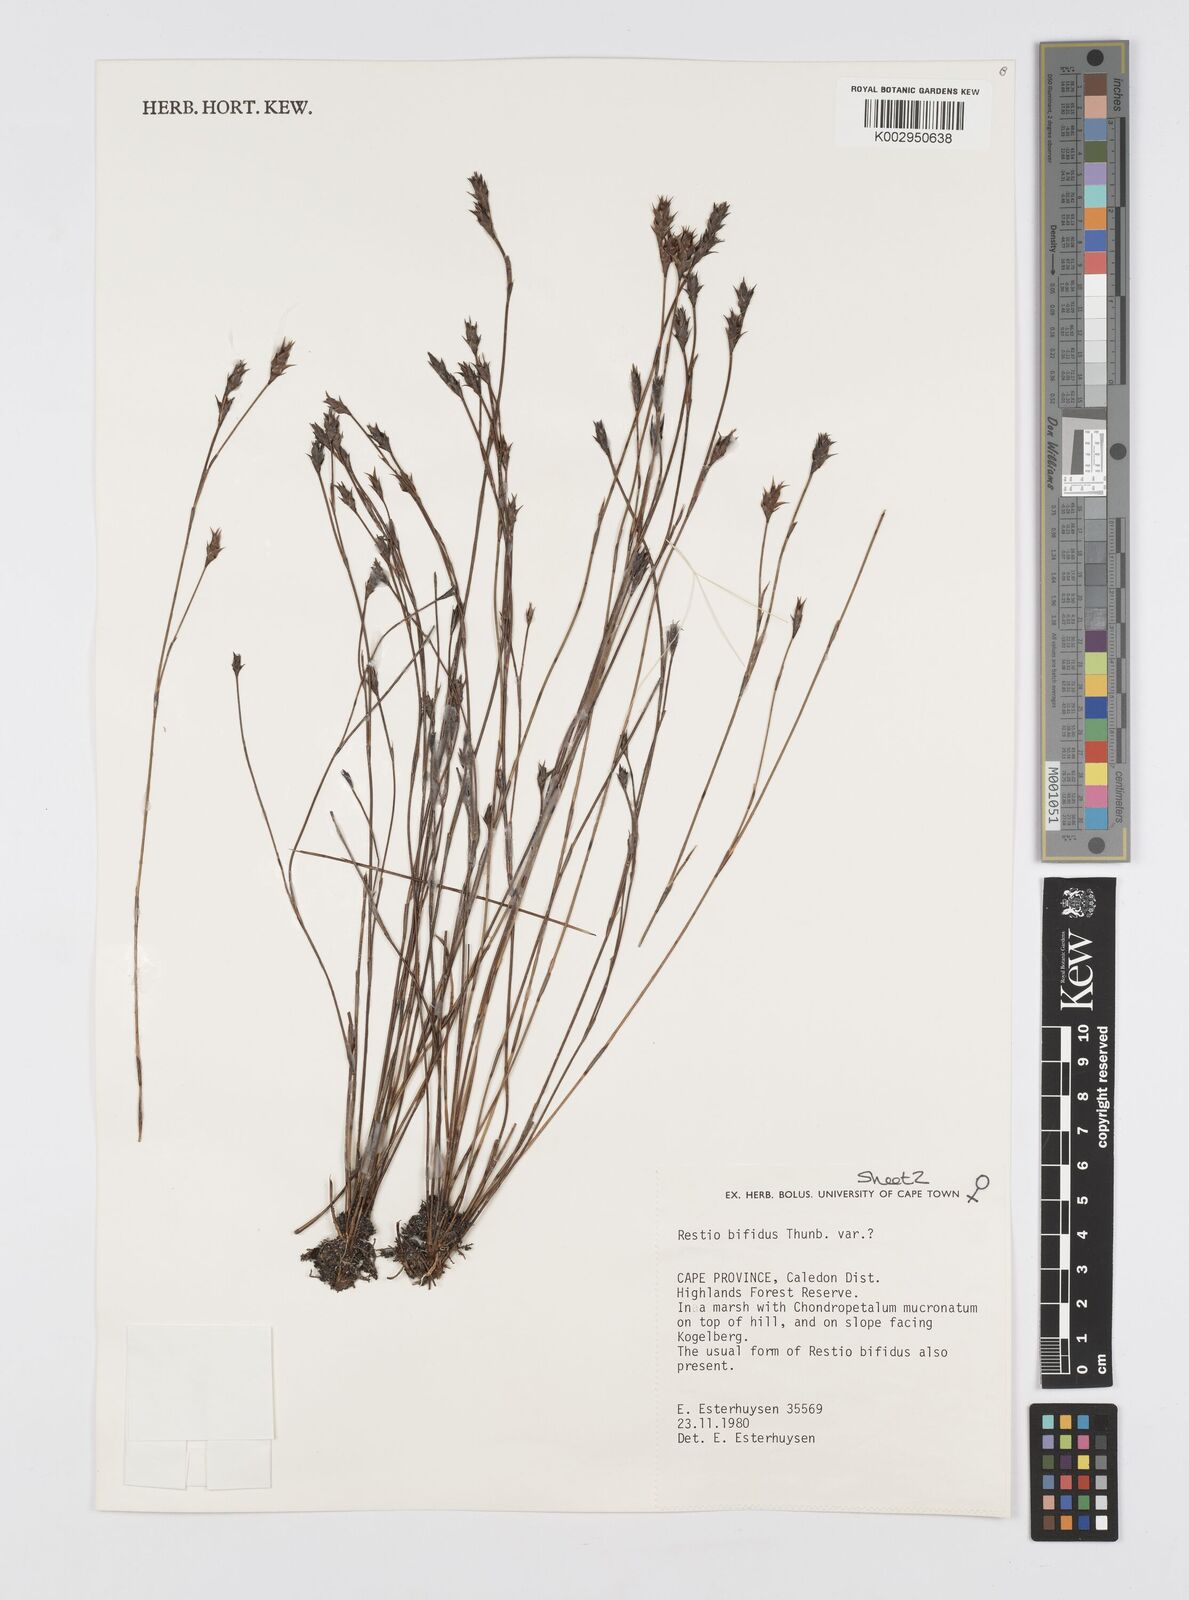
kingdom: Plantae
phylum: Tracheophyta
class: Liliopsida
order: Poales
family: Restionaceae
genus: Restio
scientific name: Restio bifidus
